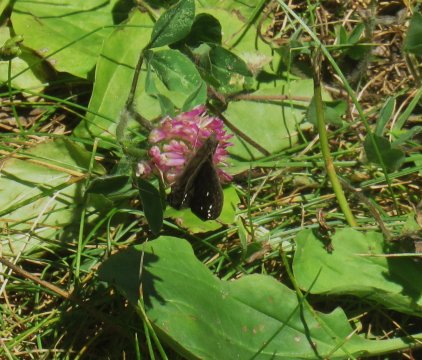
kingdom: Animalia
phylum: Arthropoda
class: Insecta
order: Lepidoptera
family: Hesperiidae
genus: Gesta
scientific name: Gesta
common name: Horace's Duskywing
